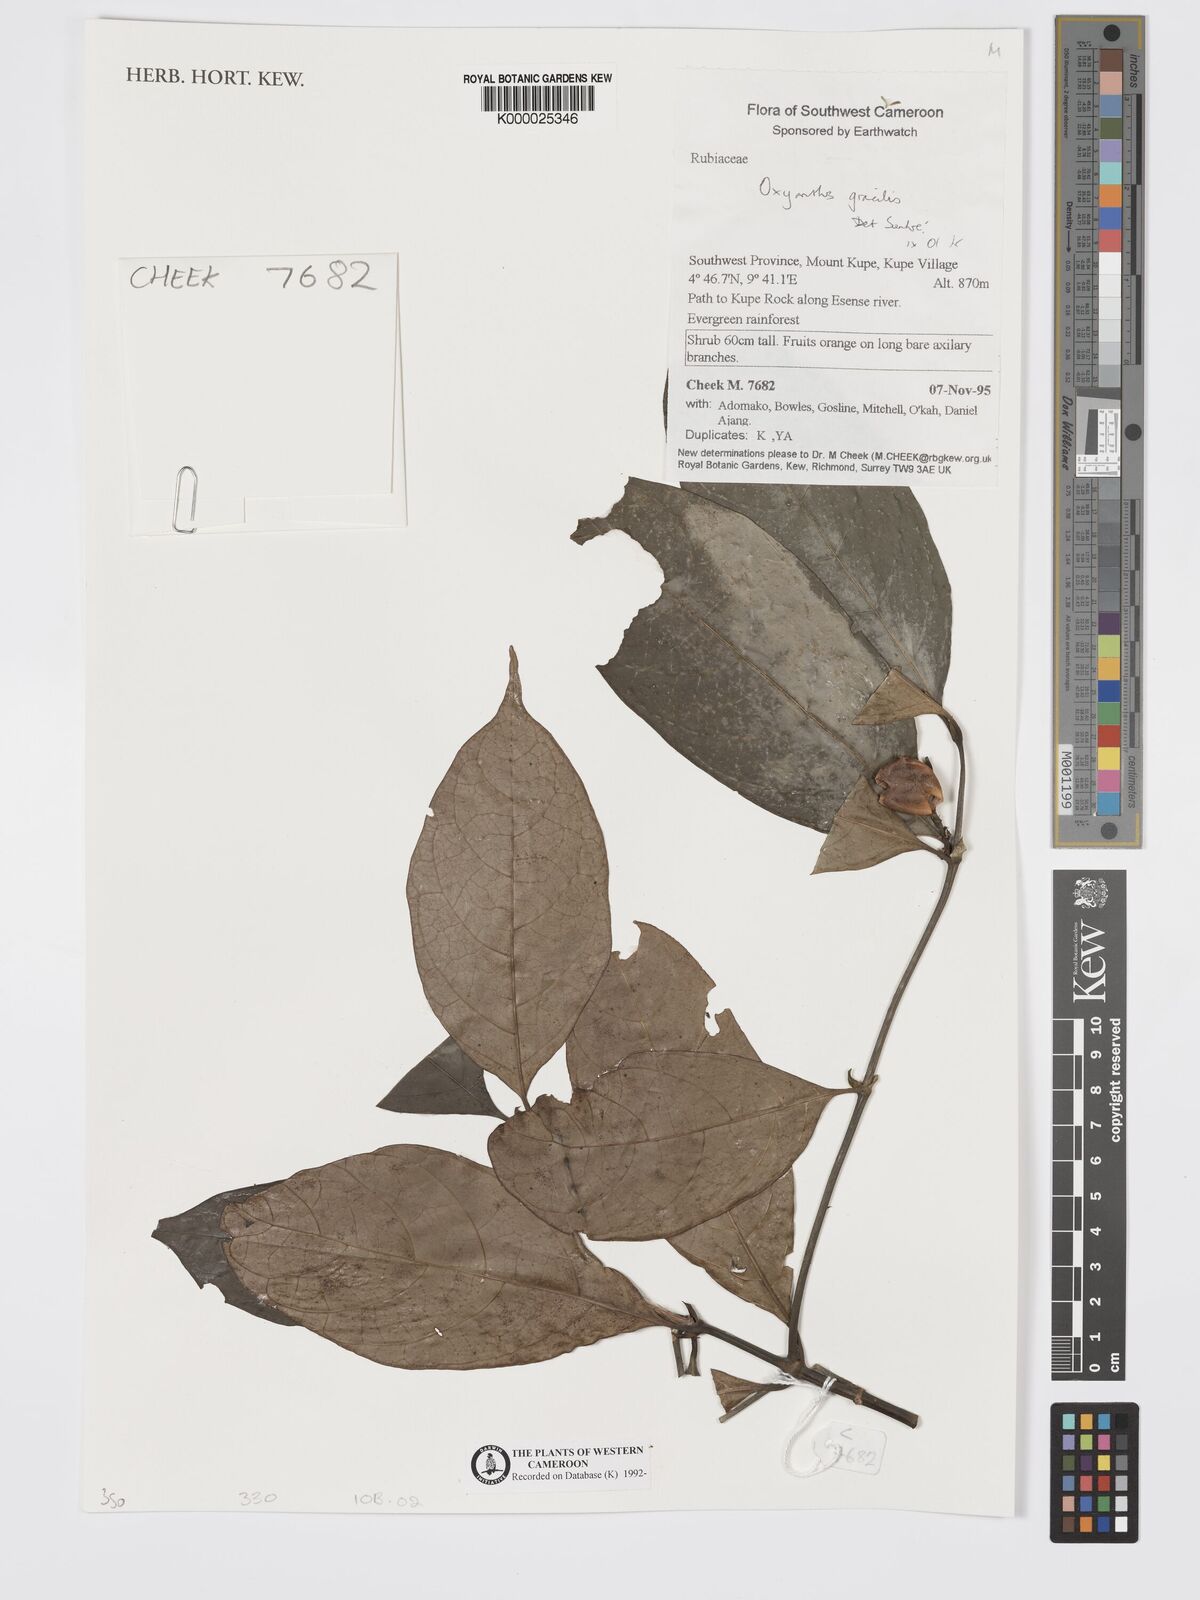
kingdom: Plantae
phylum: Tracheophyta
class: Magnoliopsida
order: Gentianales
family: Rubiaceae
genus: Oxyanthus
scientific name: Oxyanthus gracilis
